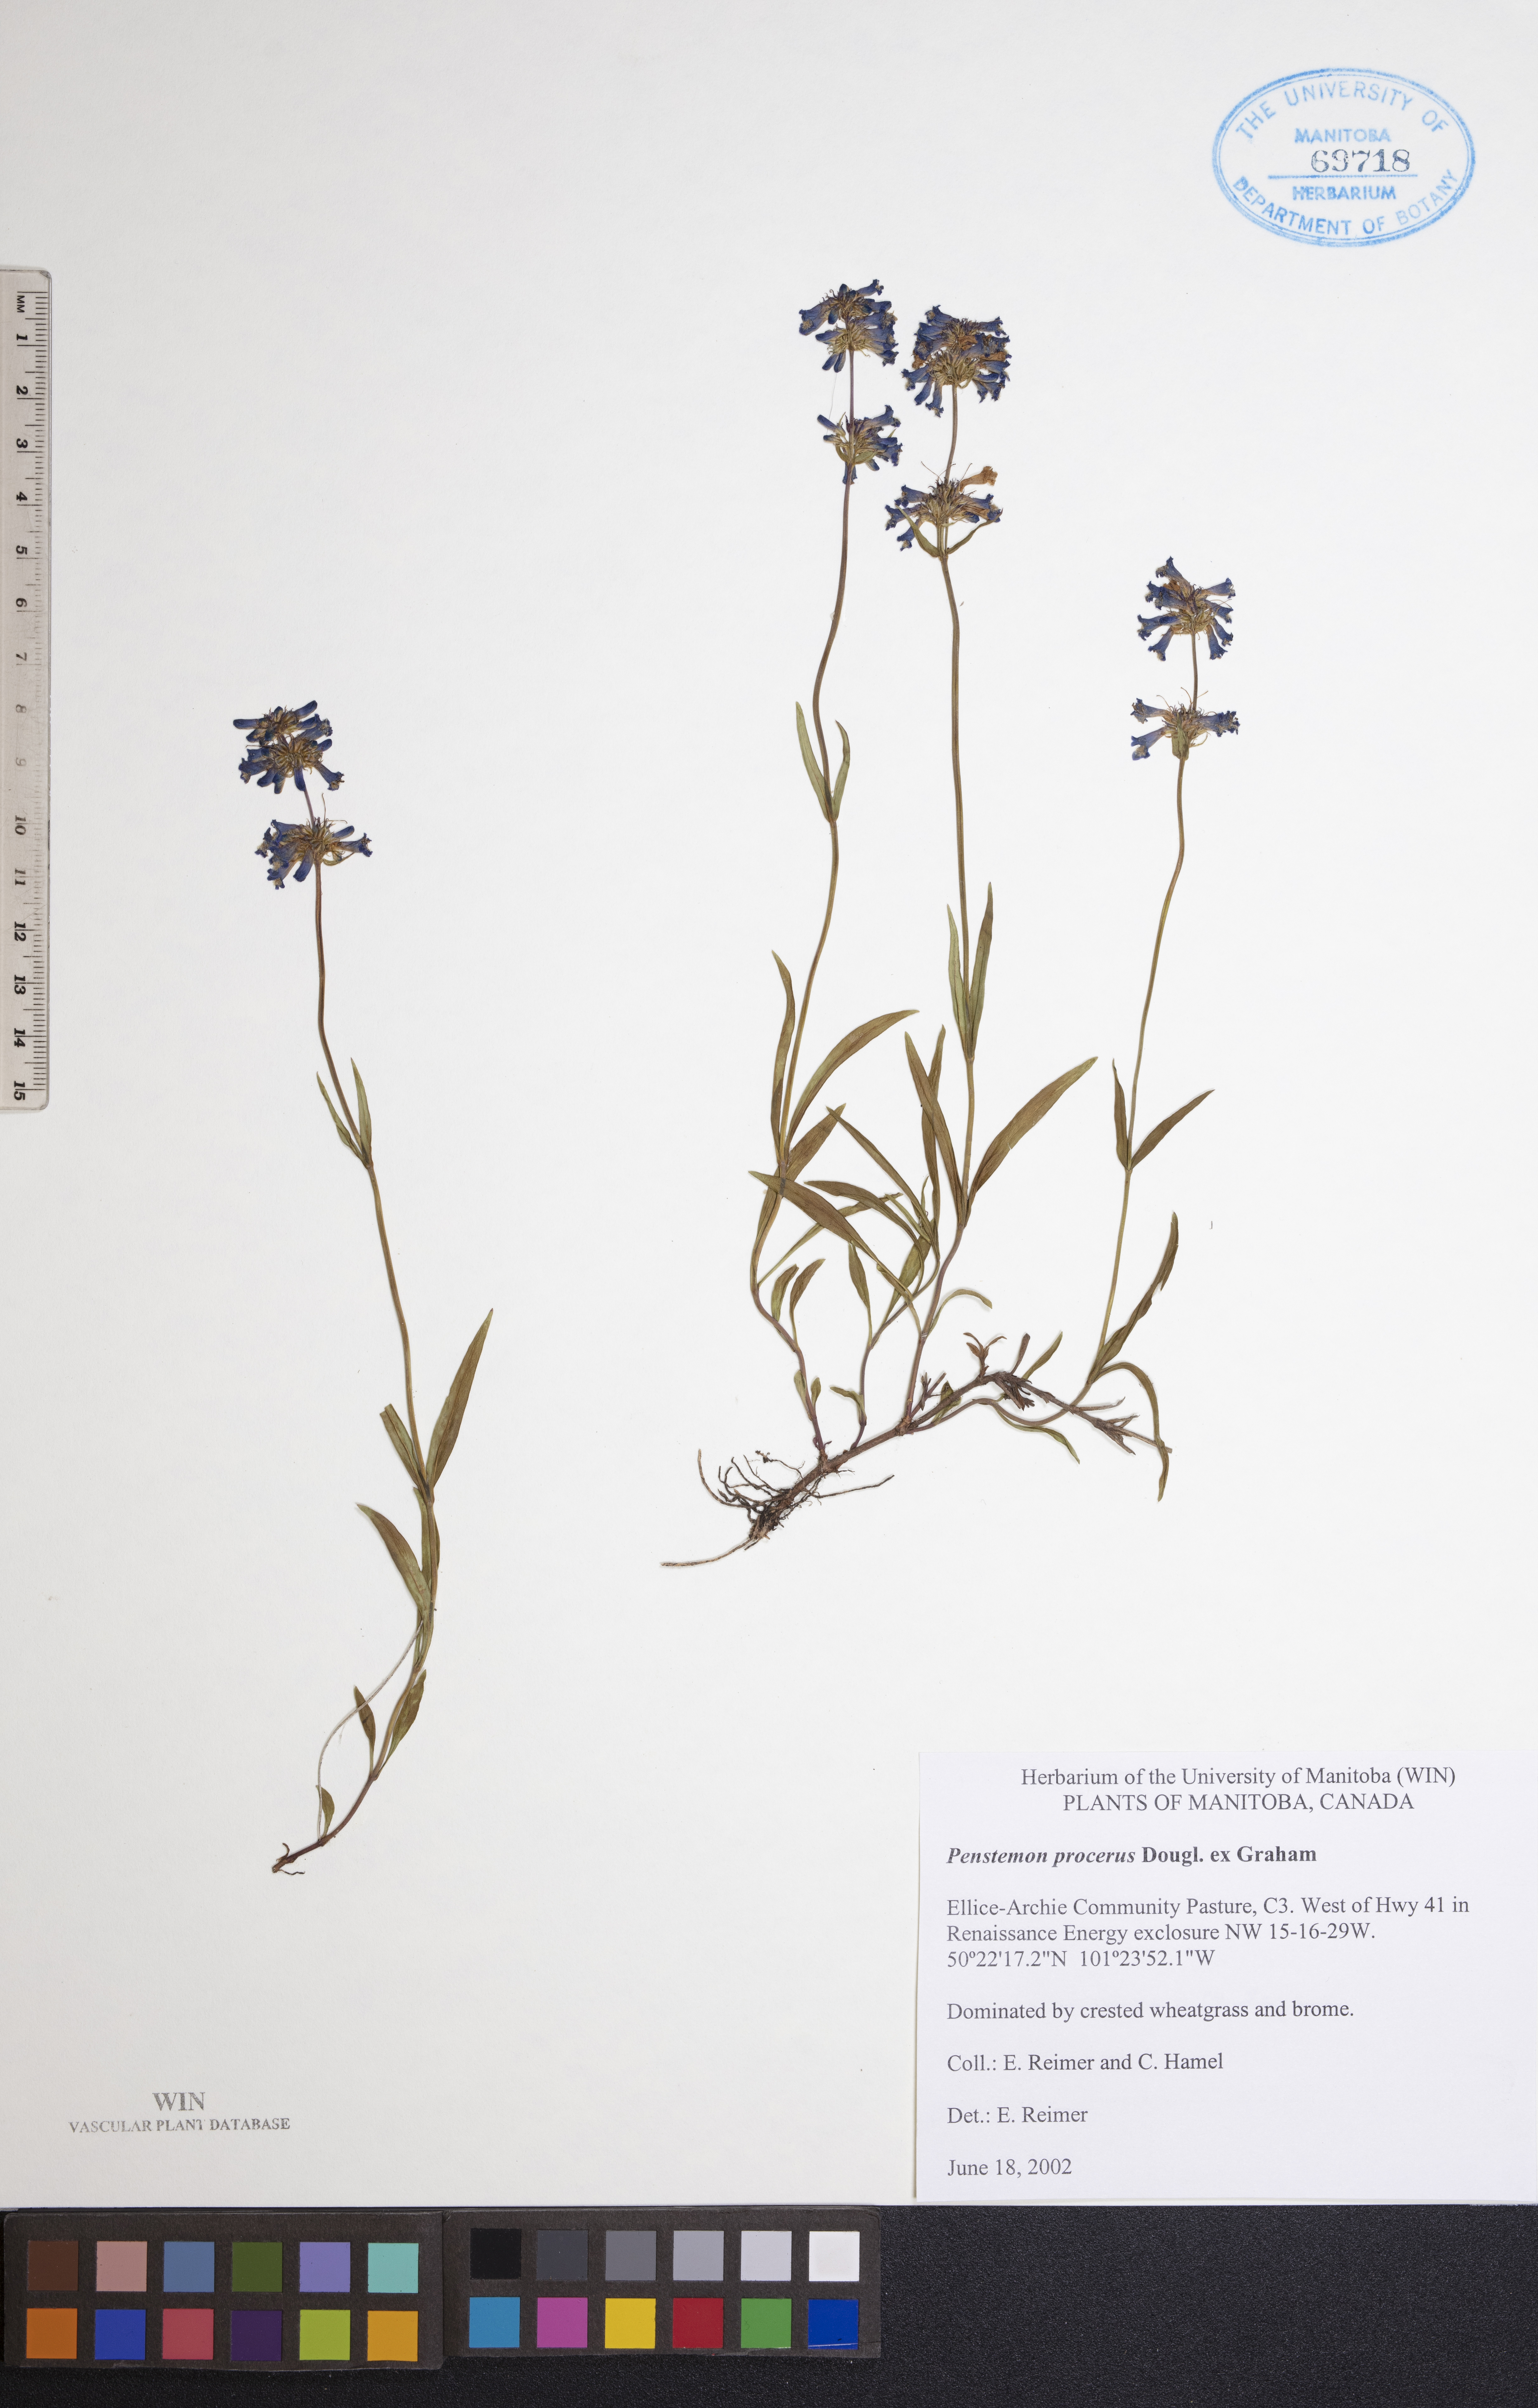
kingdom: Plantae
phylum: Tracheophyta
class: Magnoliopsida
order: Lamiales
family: Plantaginaceae
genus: Penstemon
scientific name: Penstemon procerus
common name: Small-flower penstemon
